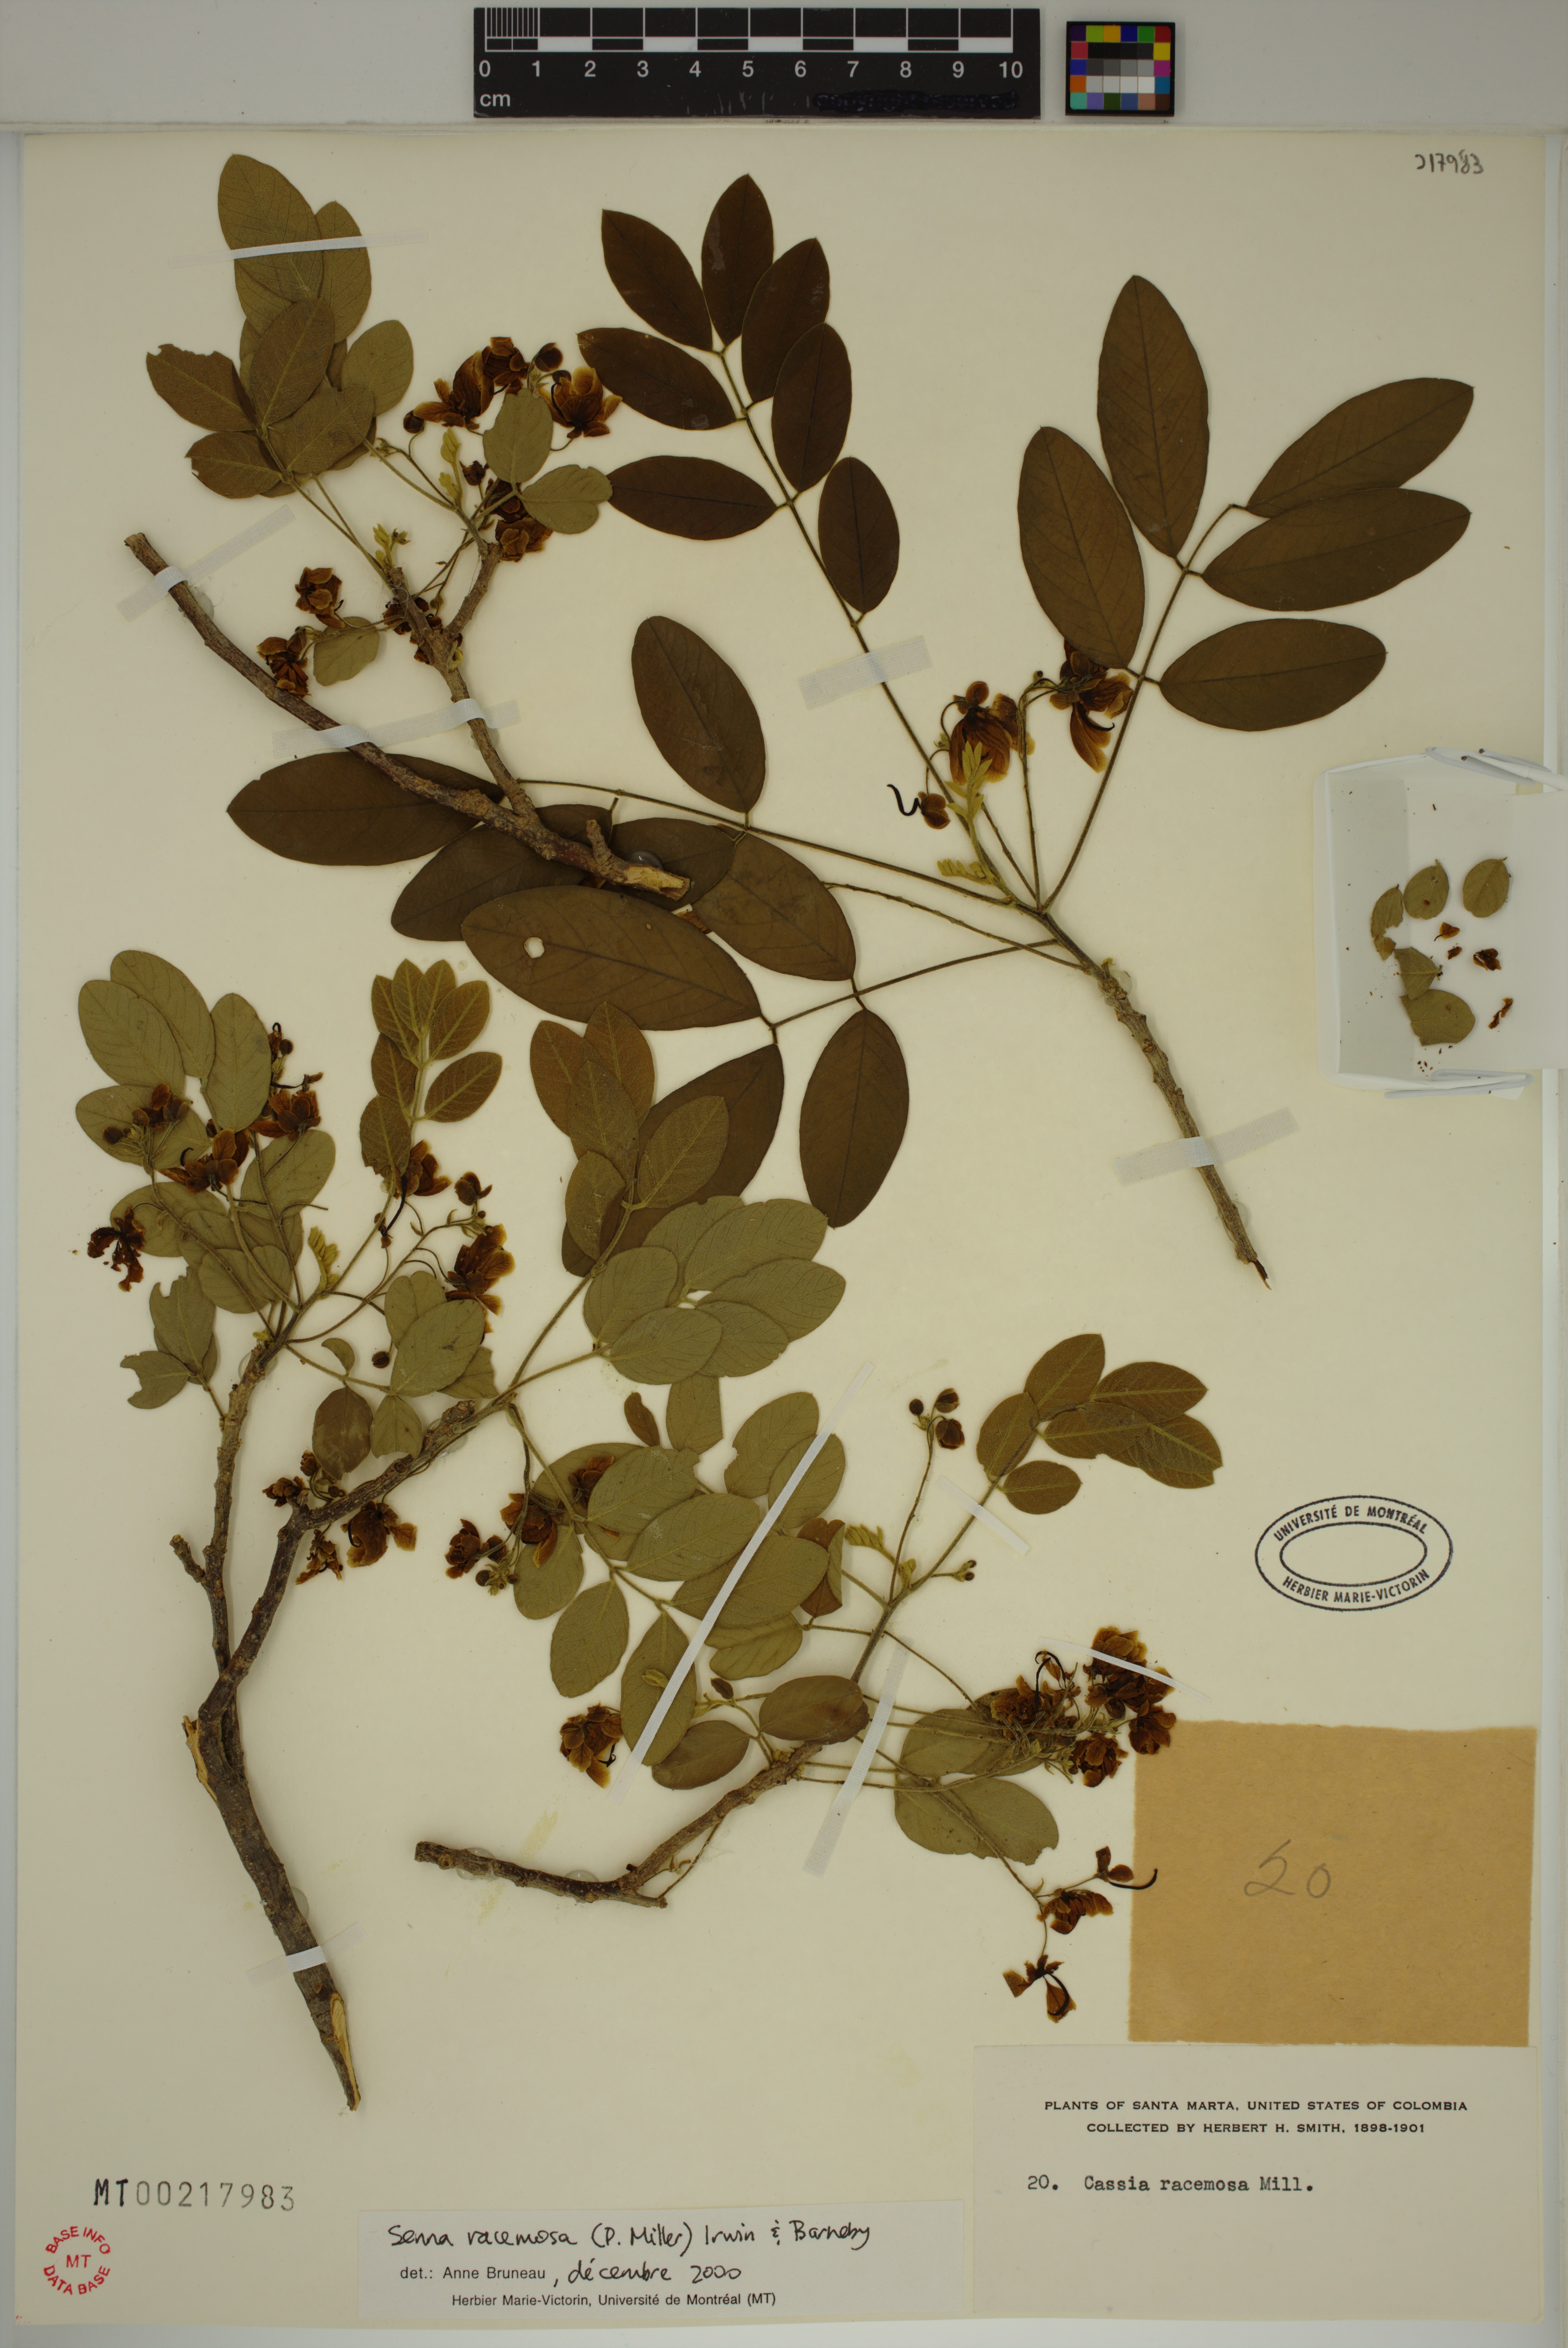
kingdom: Plantae
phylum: Tracheophyta
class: Magnoliopsida
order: Fabales
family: Fabaceae
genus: Senna
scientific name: Senna racemosa
